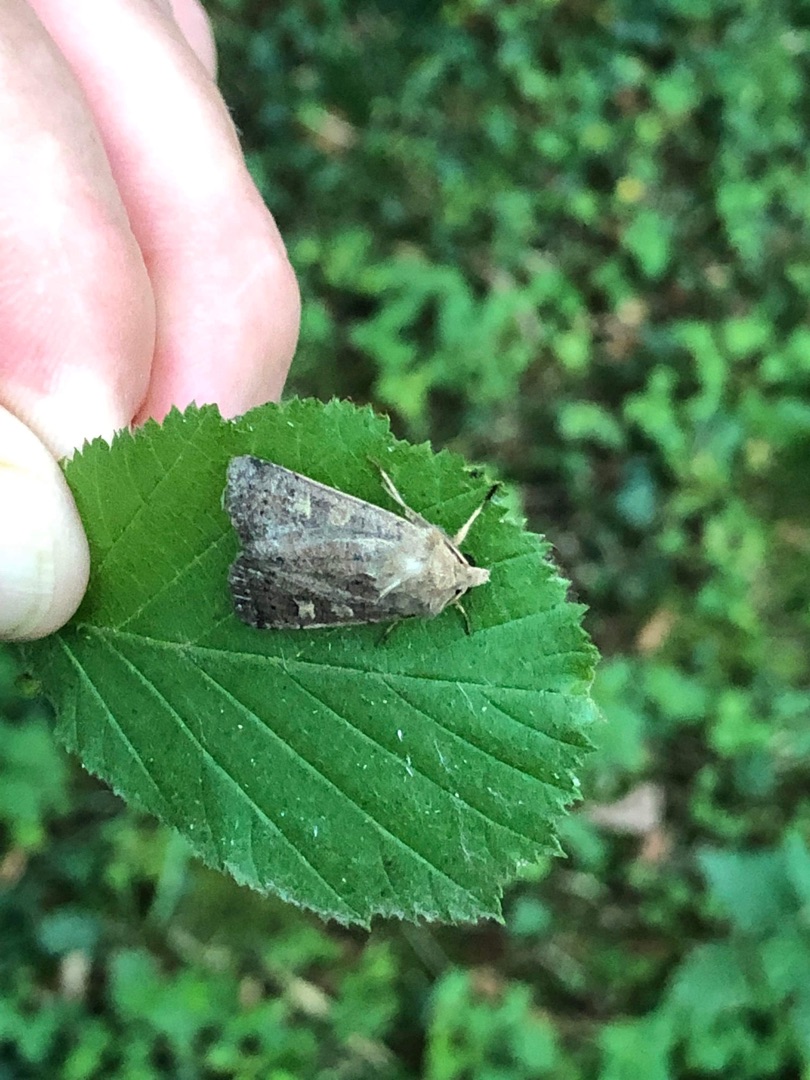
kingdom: Animalia
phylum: Arthropoda
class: Insecta
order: Lepidoptera
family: Noctuidae
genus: Xestia
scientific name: Xestia xanthographa
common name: Gulmærket glansugle
